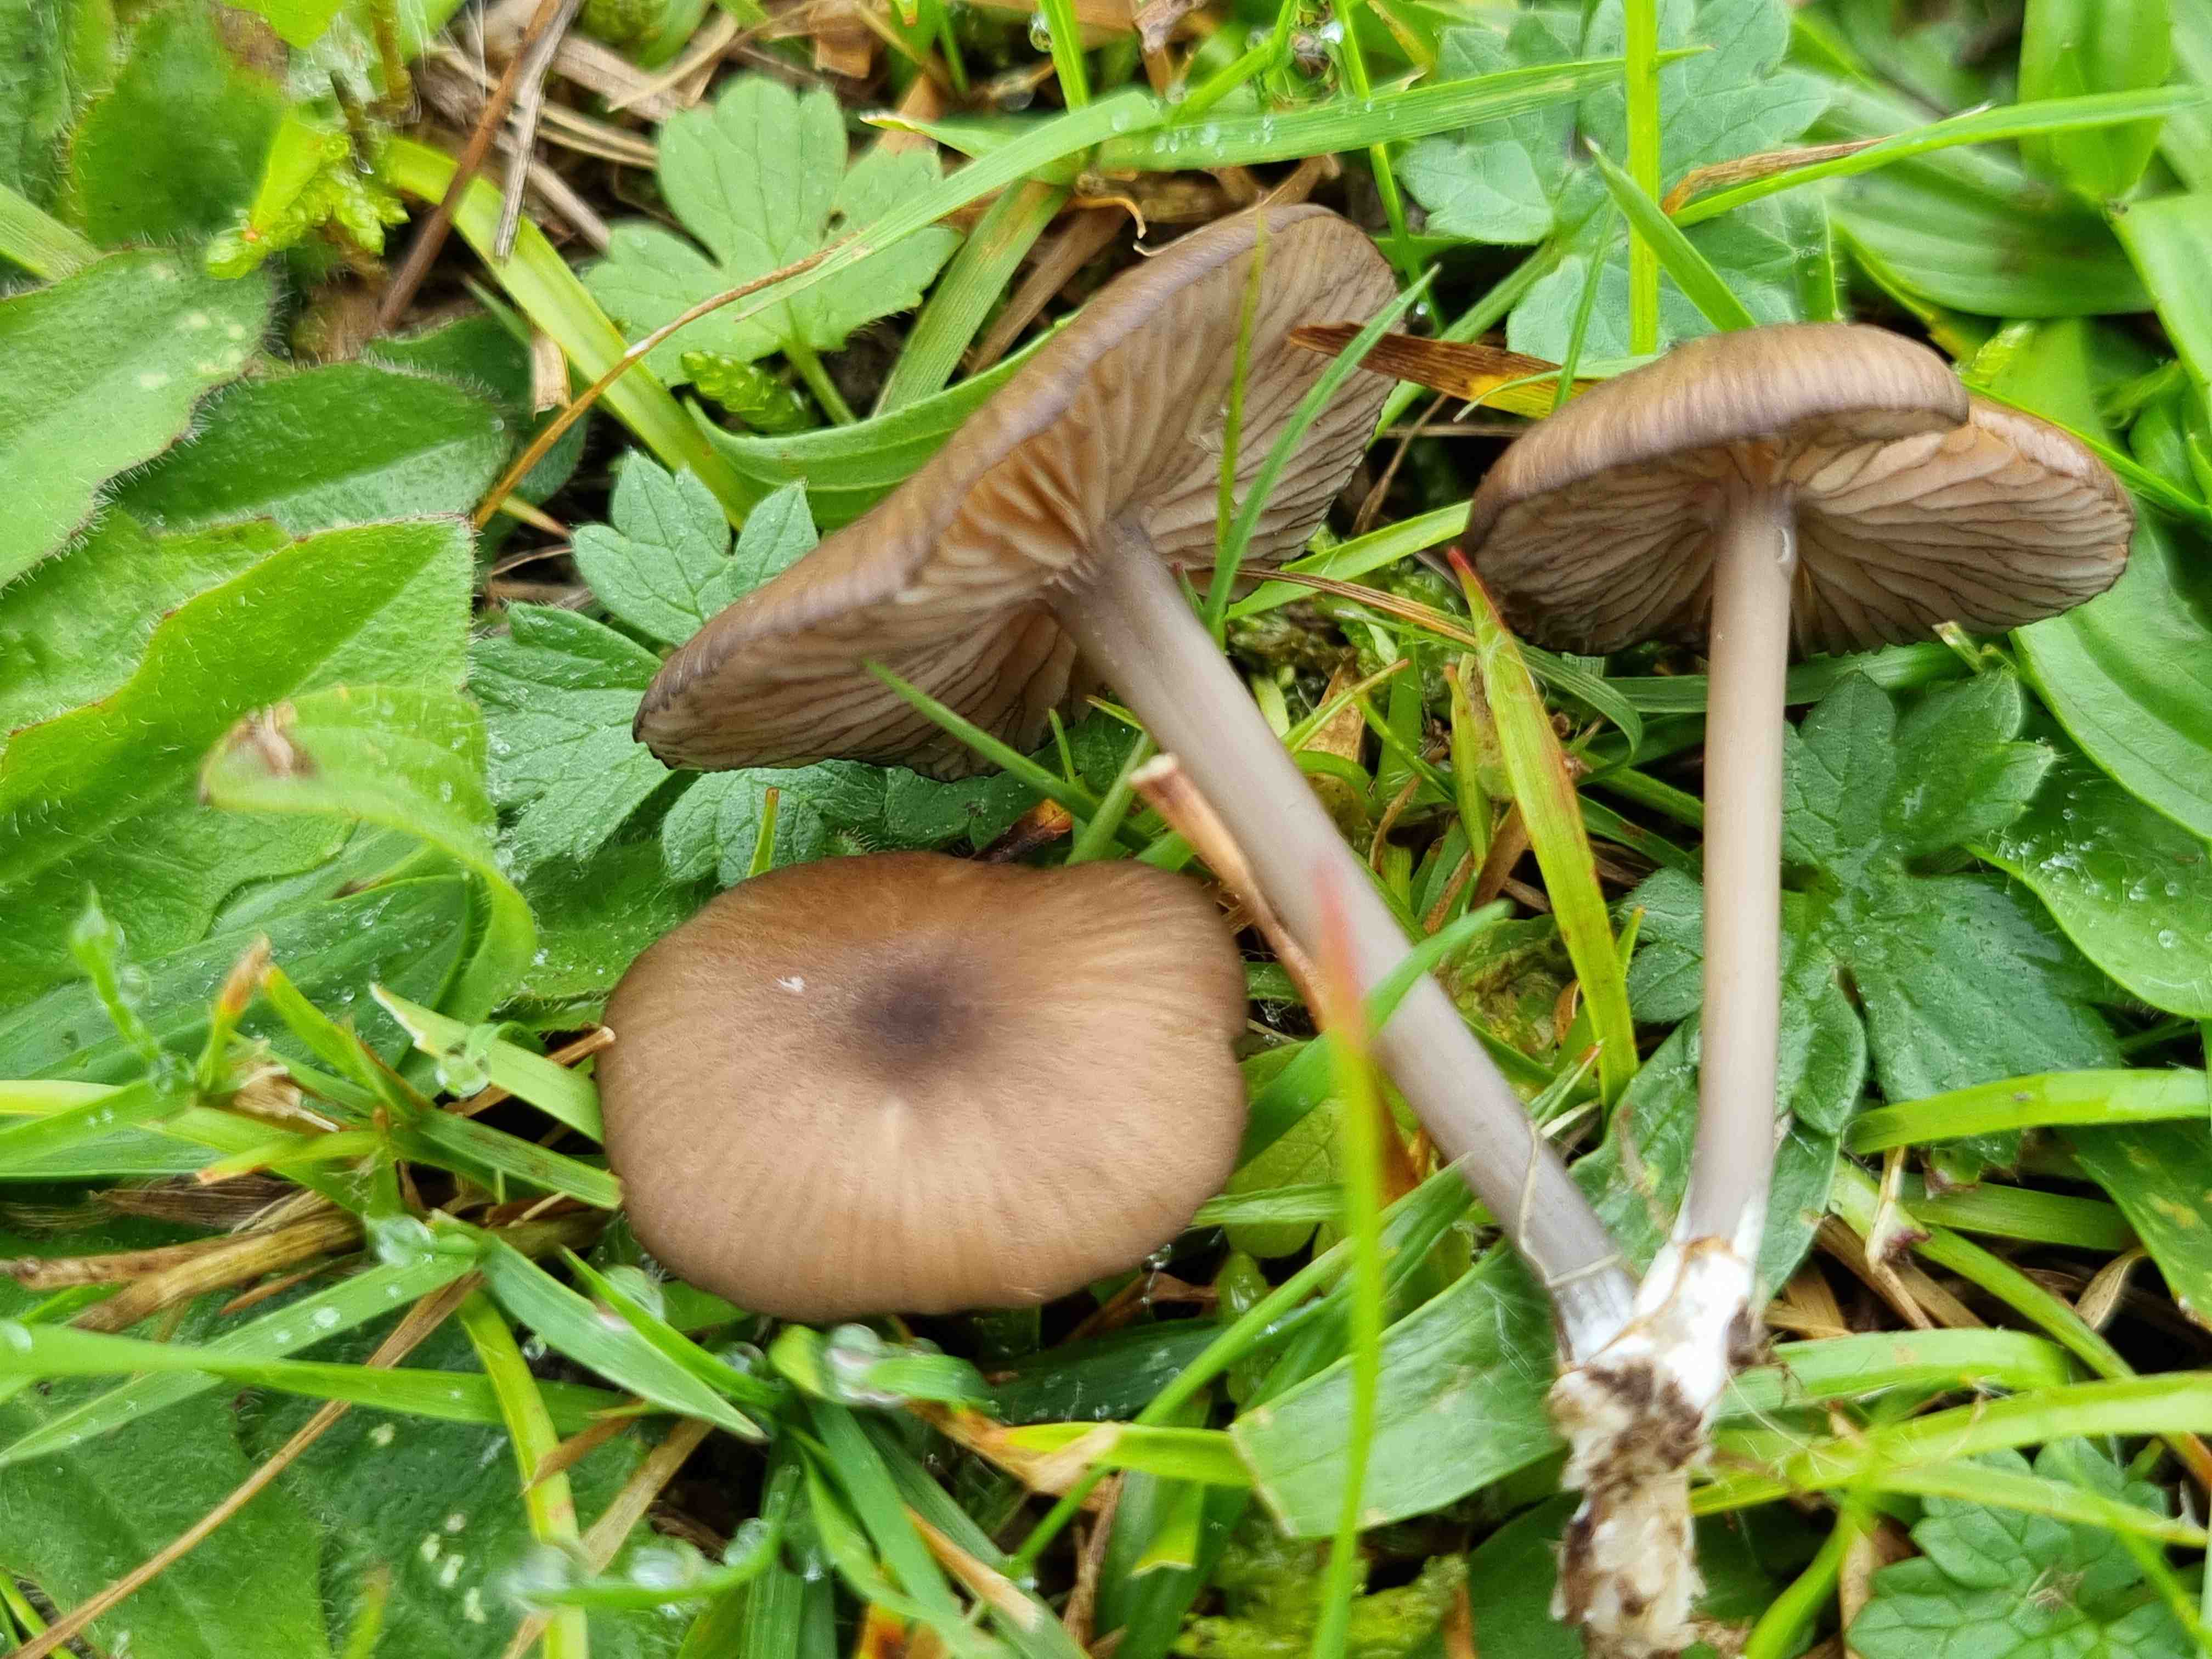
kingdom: Fungi
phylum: Basidiomycota
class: Agaricomycetes
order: Agaricales
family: Entolomataceae
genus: Entoloma
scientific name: Entoloma caesiocinctum
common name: Blue-girdled pinkgill
